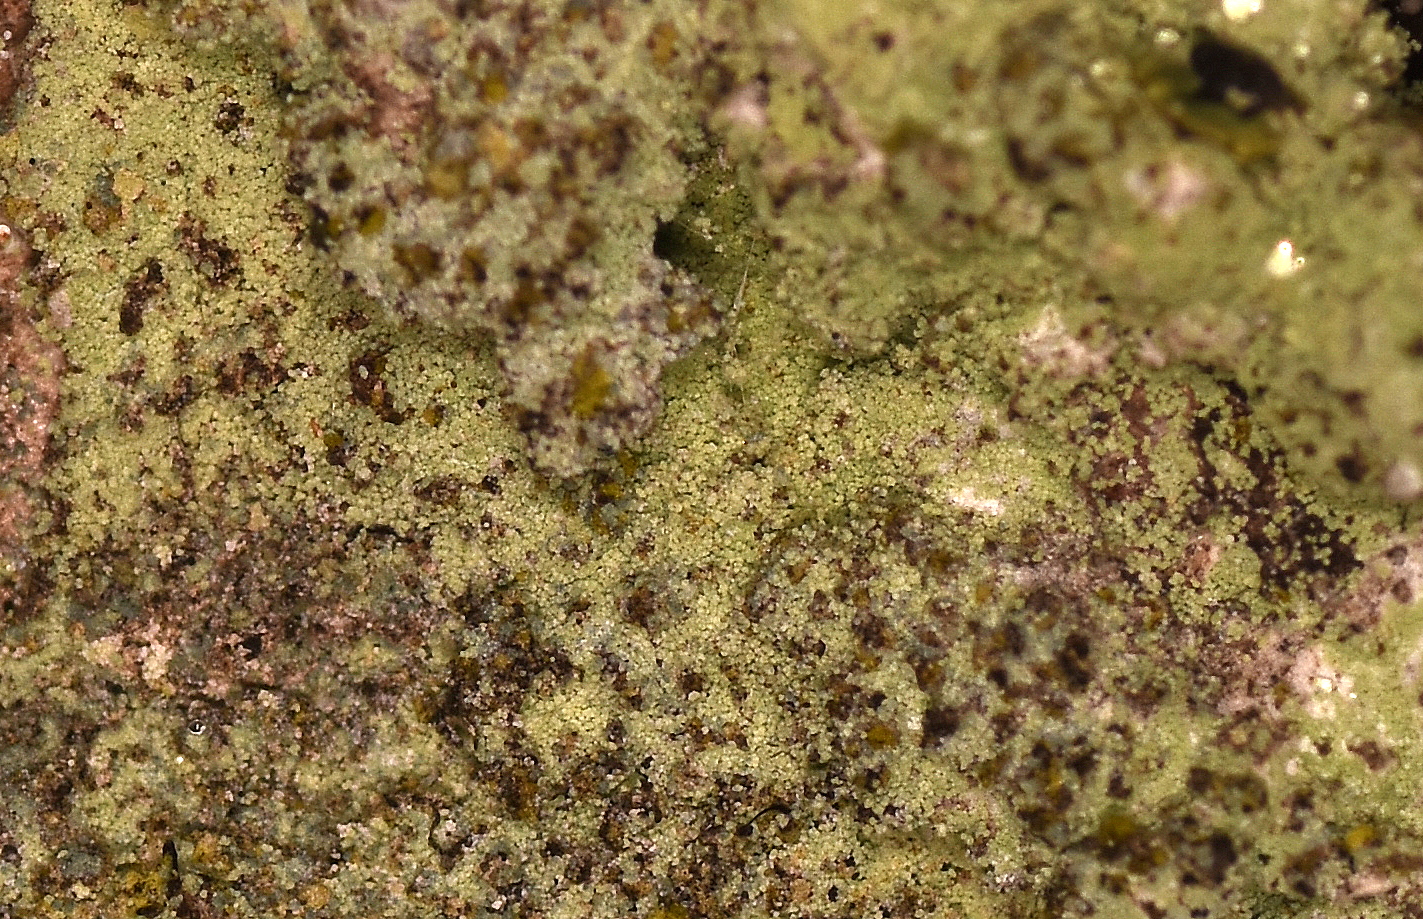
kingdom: Fungi
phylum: Ascomycota
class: Lecanoromycetes
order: Lecanorales
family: Stereocaulaceae
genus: Lepraria
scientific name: Lepraria incana
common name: almindelig støvlav
